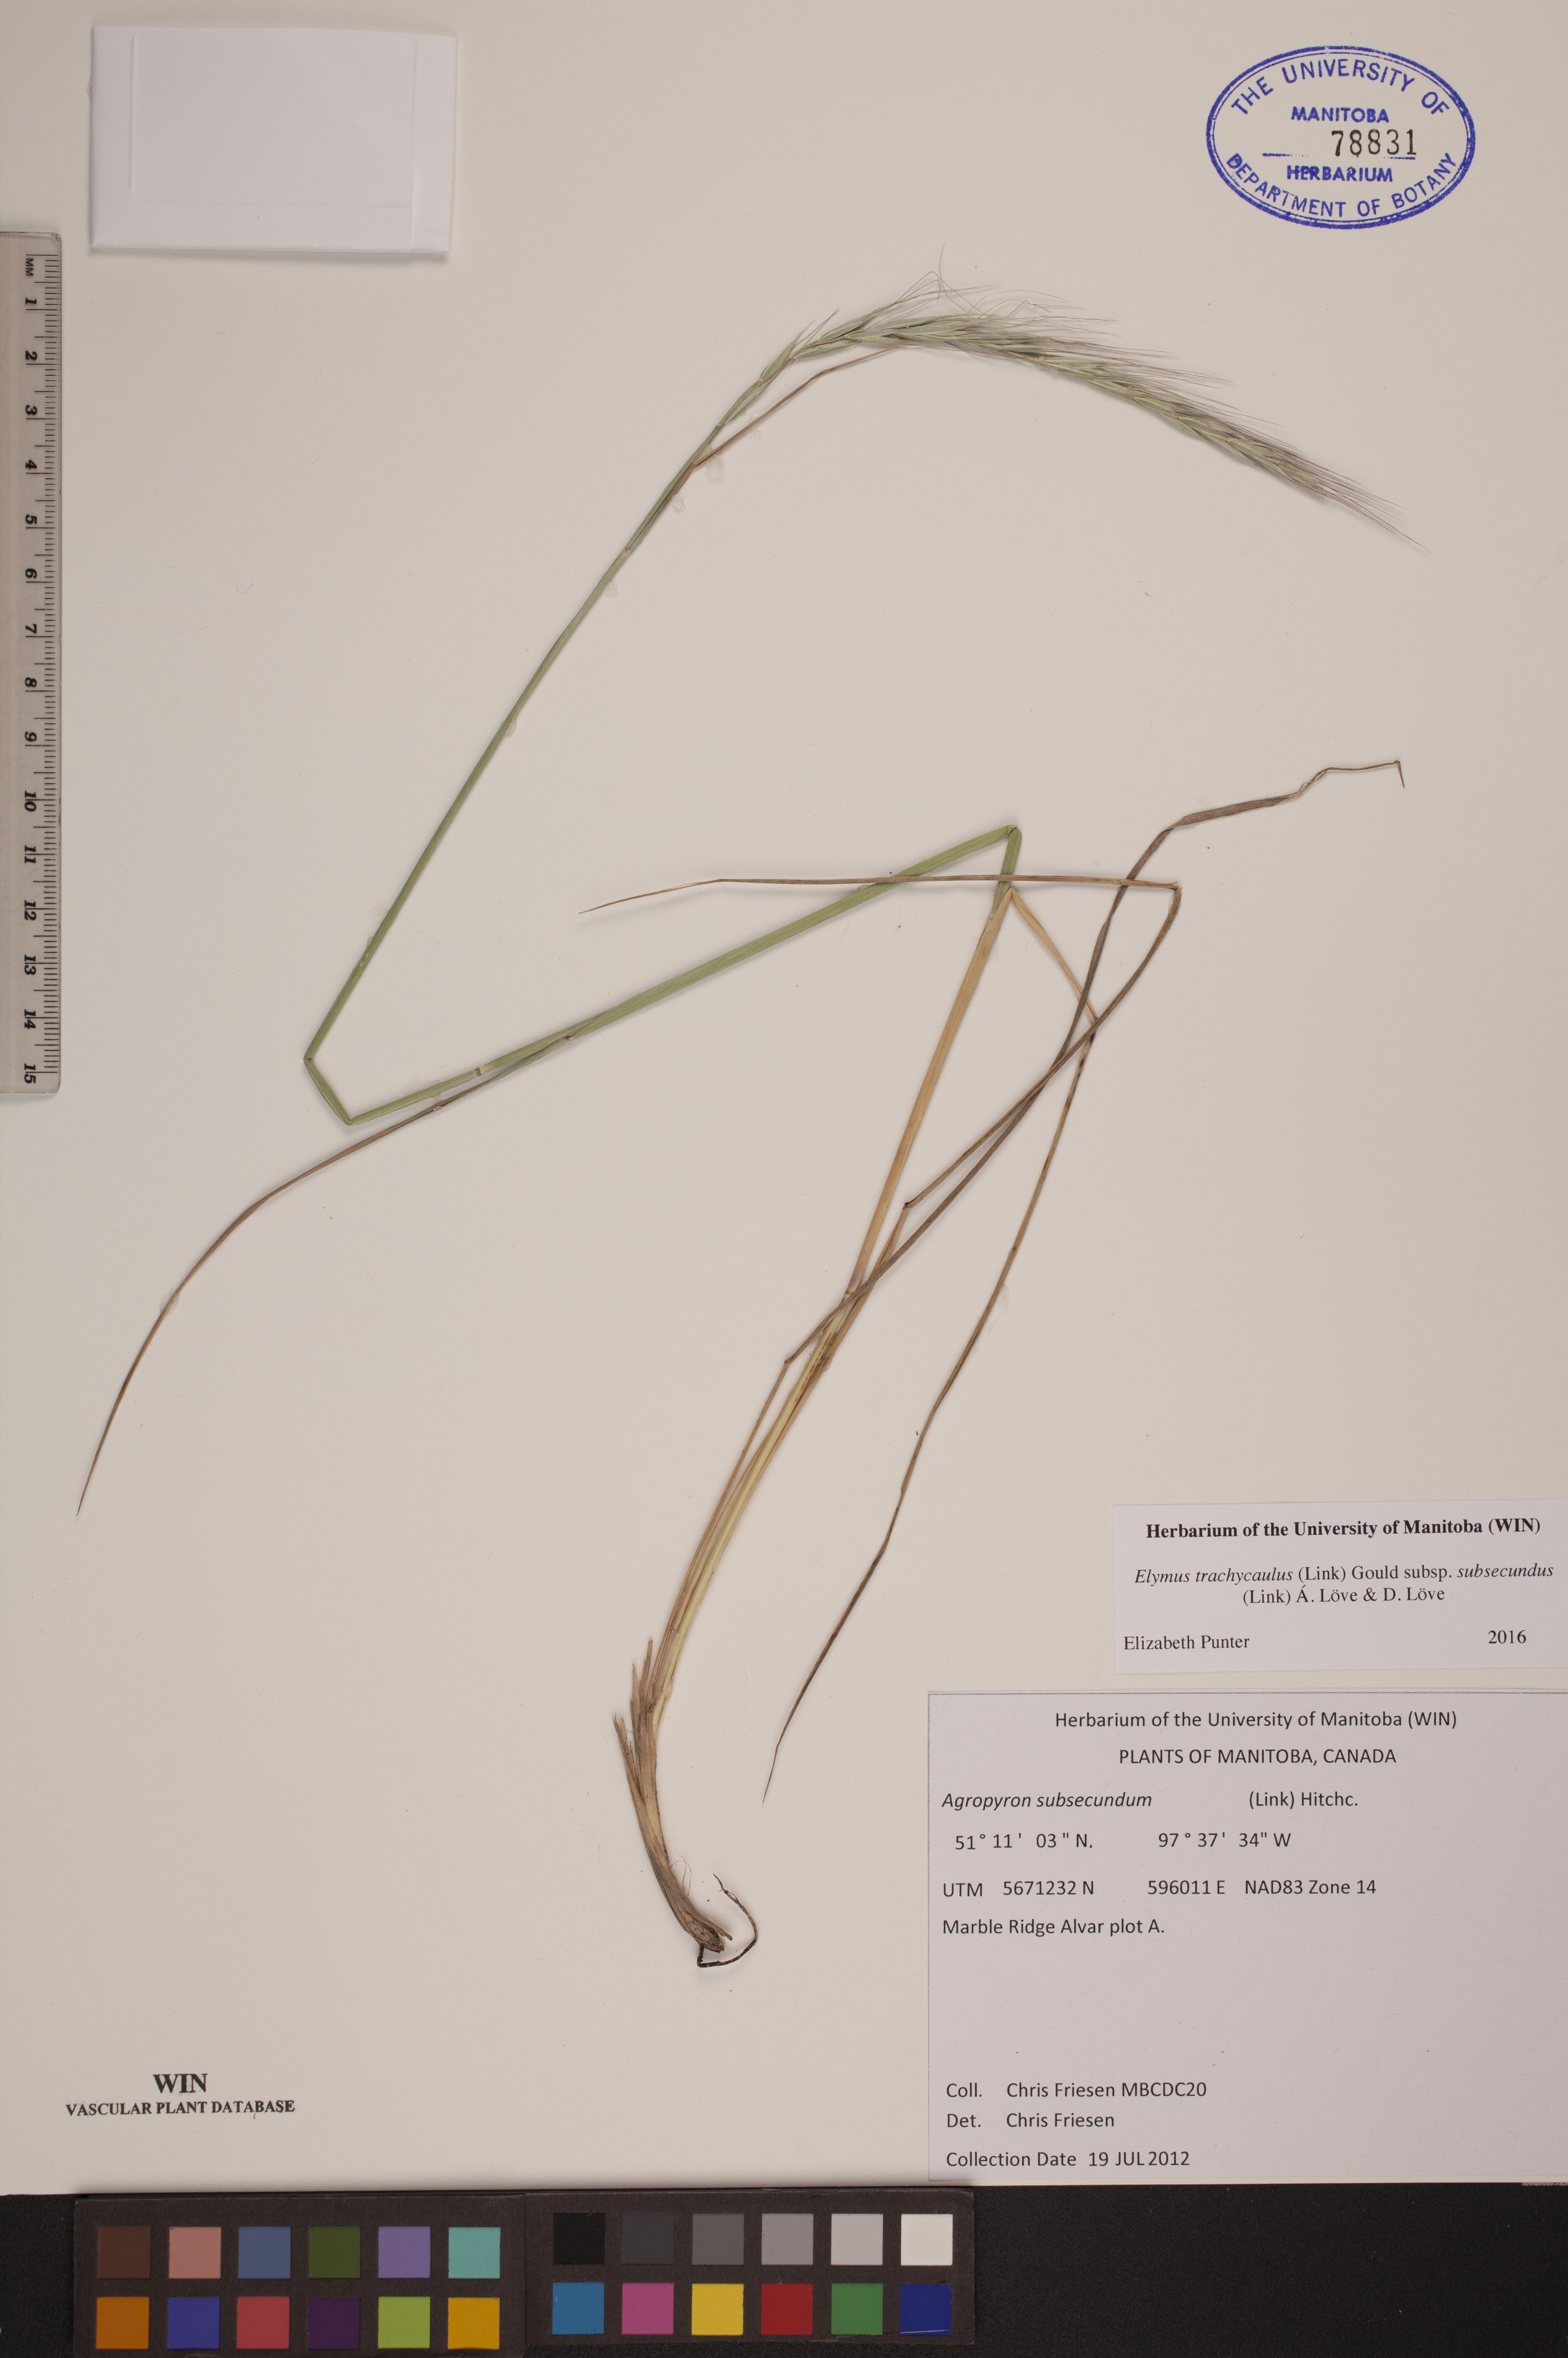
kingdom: Plantae
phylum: Tracheophyta
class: Liliopsida
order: Poales
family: Poaceae
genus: Elymus
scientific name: Elymus violaceus
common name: Arctic wheatgrass
